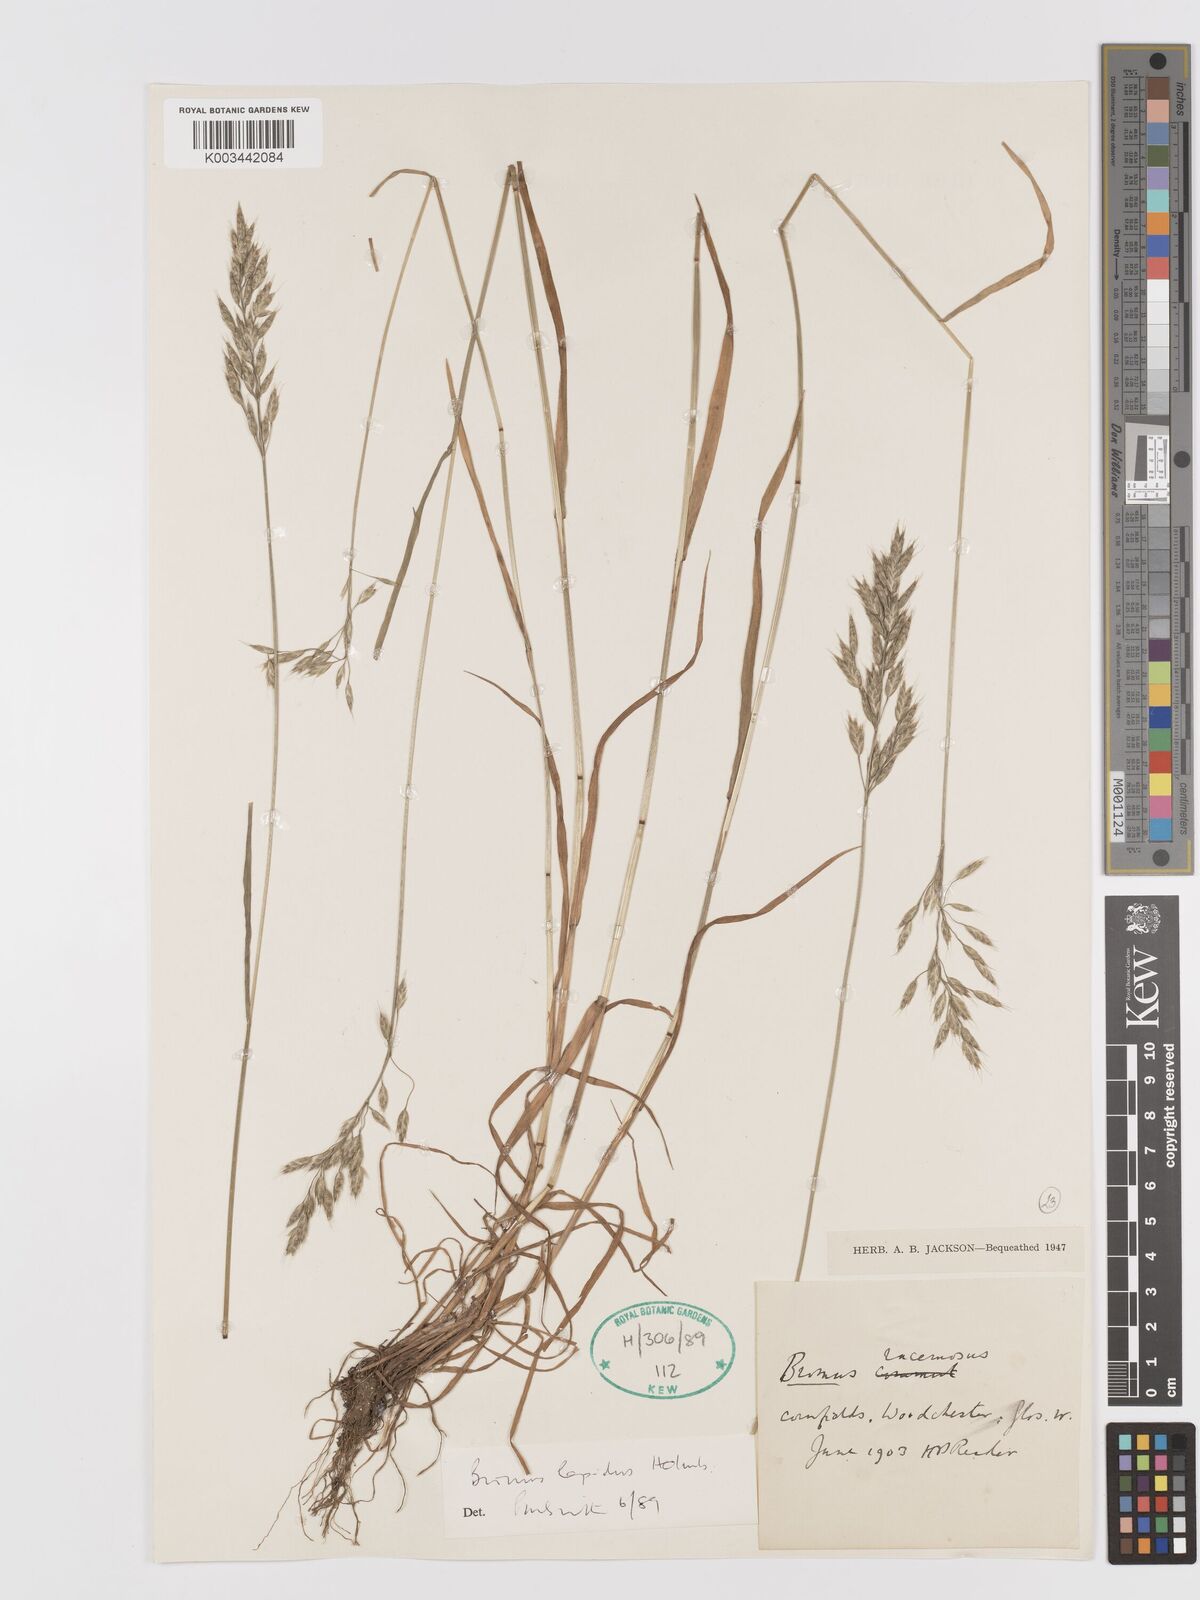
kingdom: Plantae
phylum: Tracheophyta
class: Liliopsida
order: Poales
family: Poaceae
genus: Bromus
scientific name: Bromus lepidus
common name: Slender soft-brome
